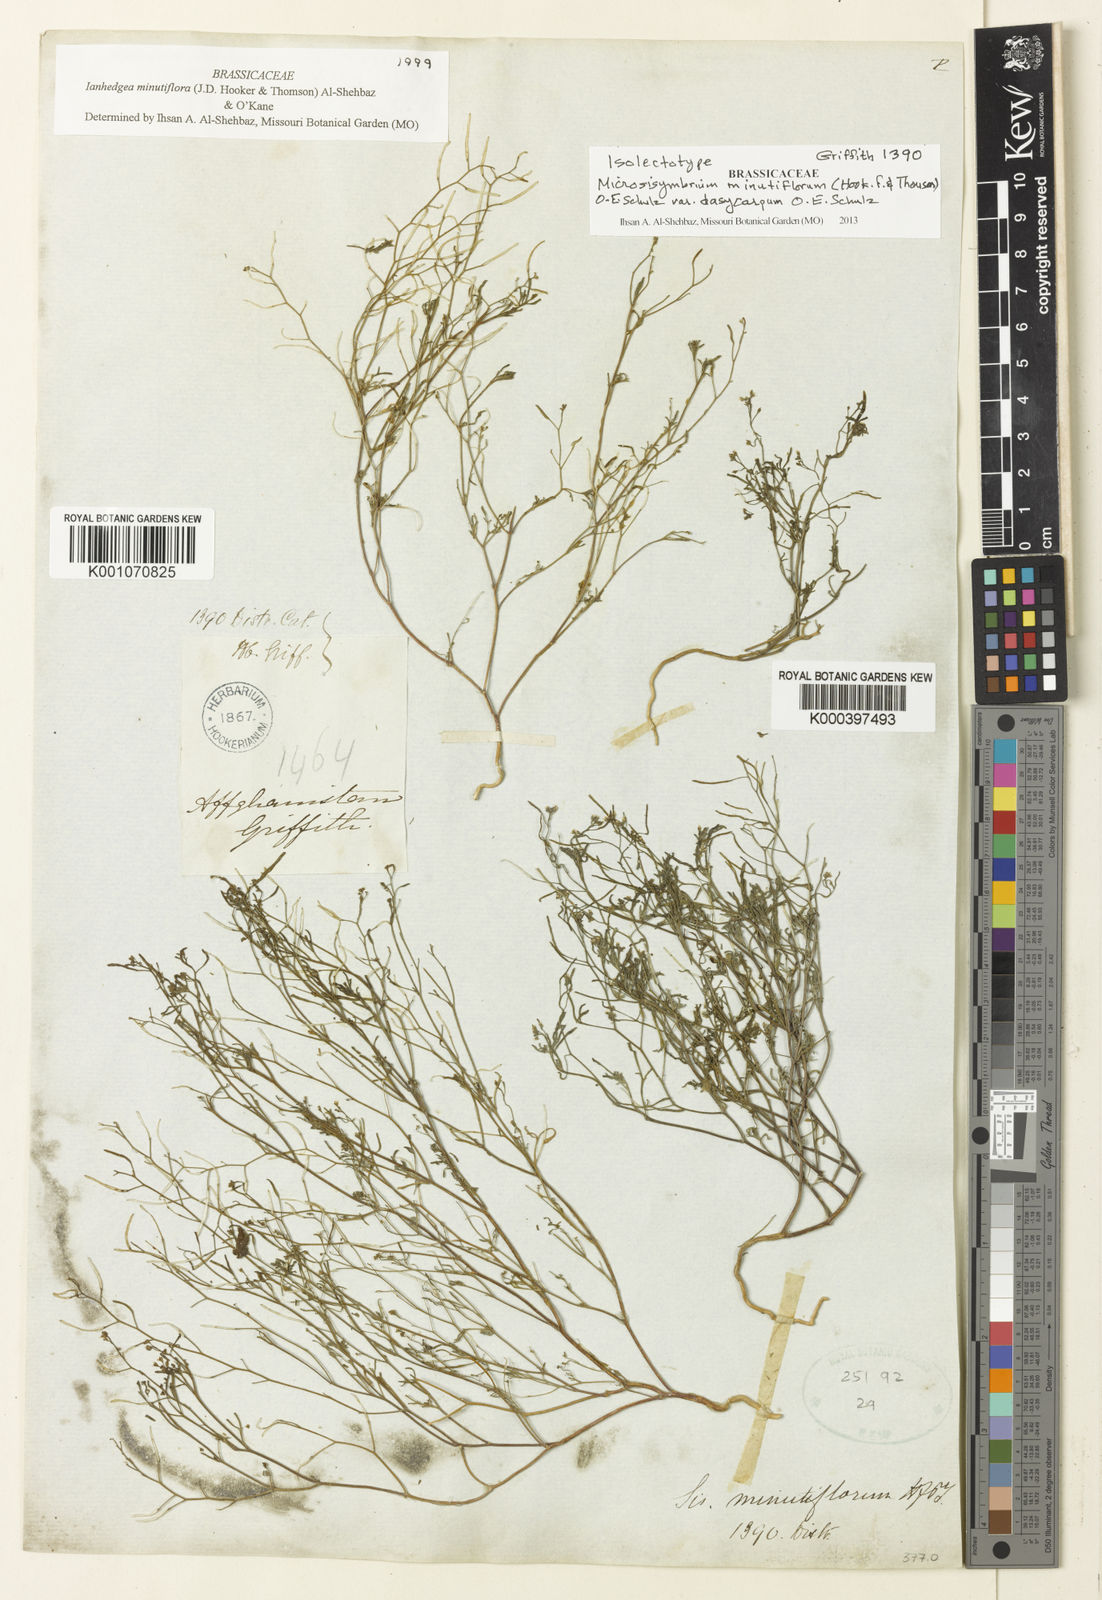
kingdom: Plantae
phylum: Tracheophyta
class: Magnoliopsida
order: Brassicales
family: Brassicaceae
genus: Ianhedgea
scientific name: Ianhedgea minutiflora
